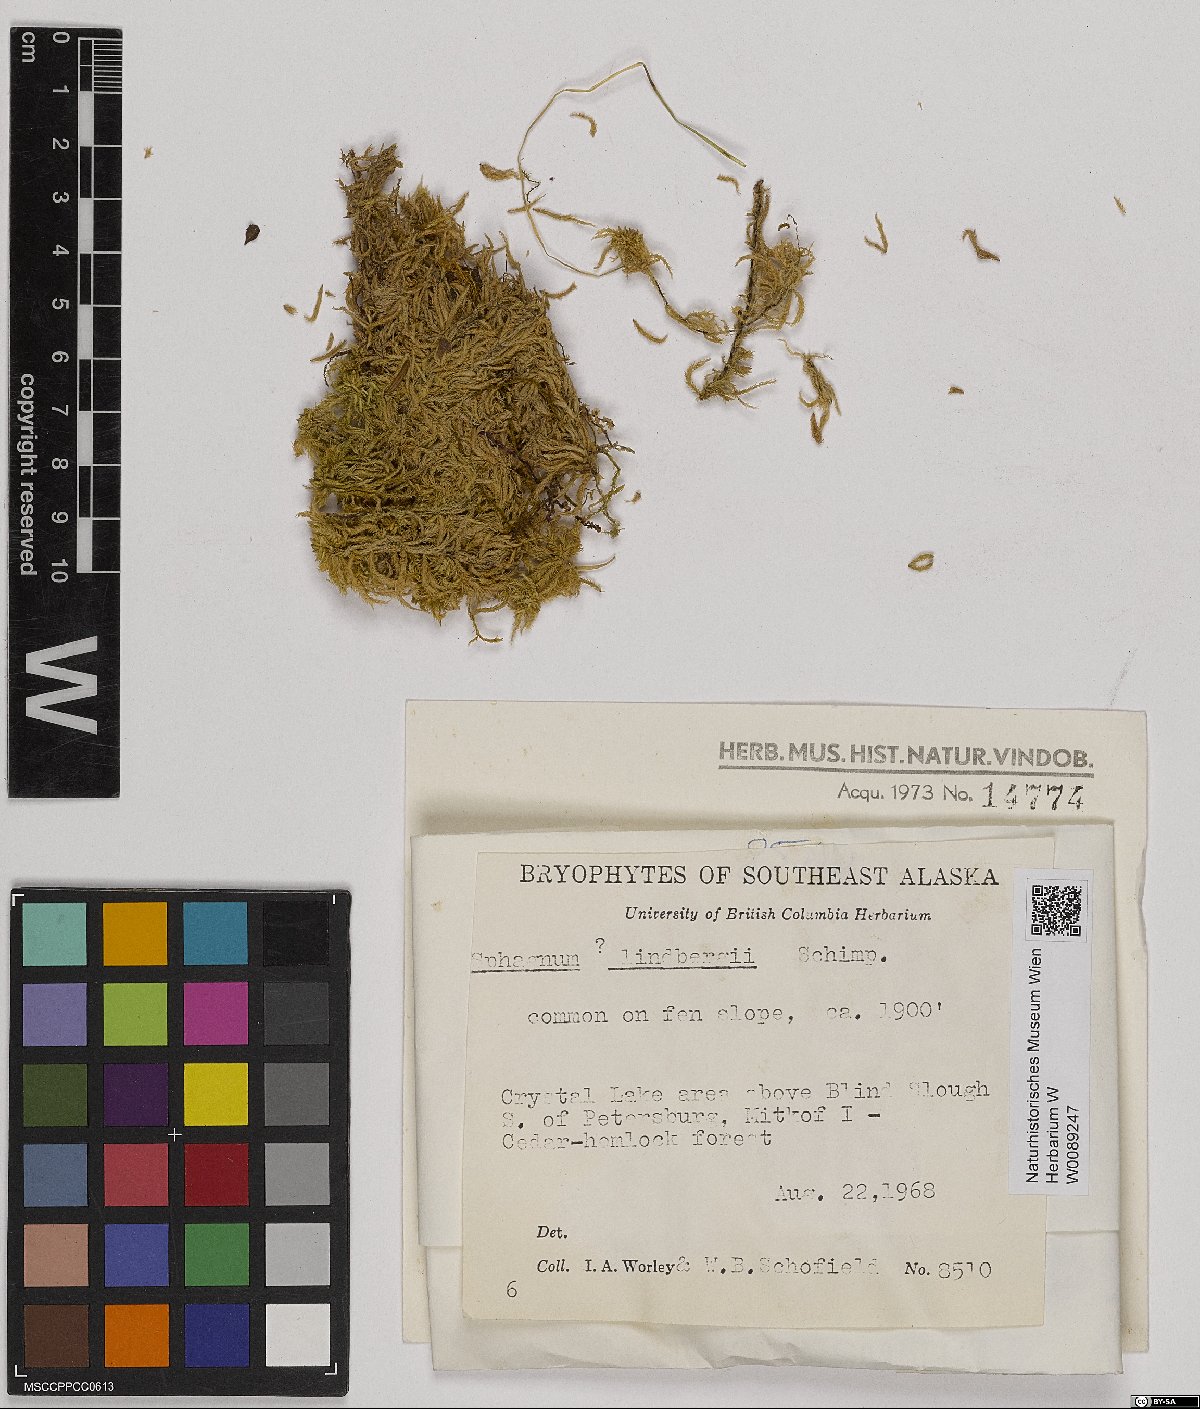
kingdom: Plantae
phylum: Bryophyta
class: Sphagnopsida
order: Sphagnales
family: Sphagnaceae
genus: Sphagnum
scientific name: Sphagnum lindbergii
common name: Lindberg's peat moss
